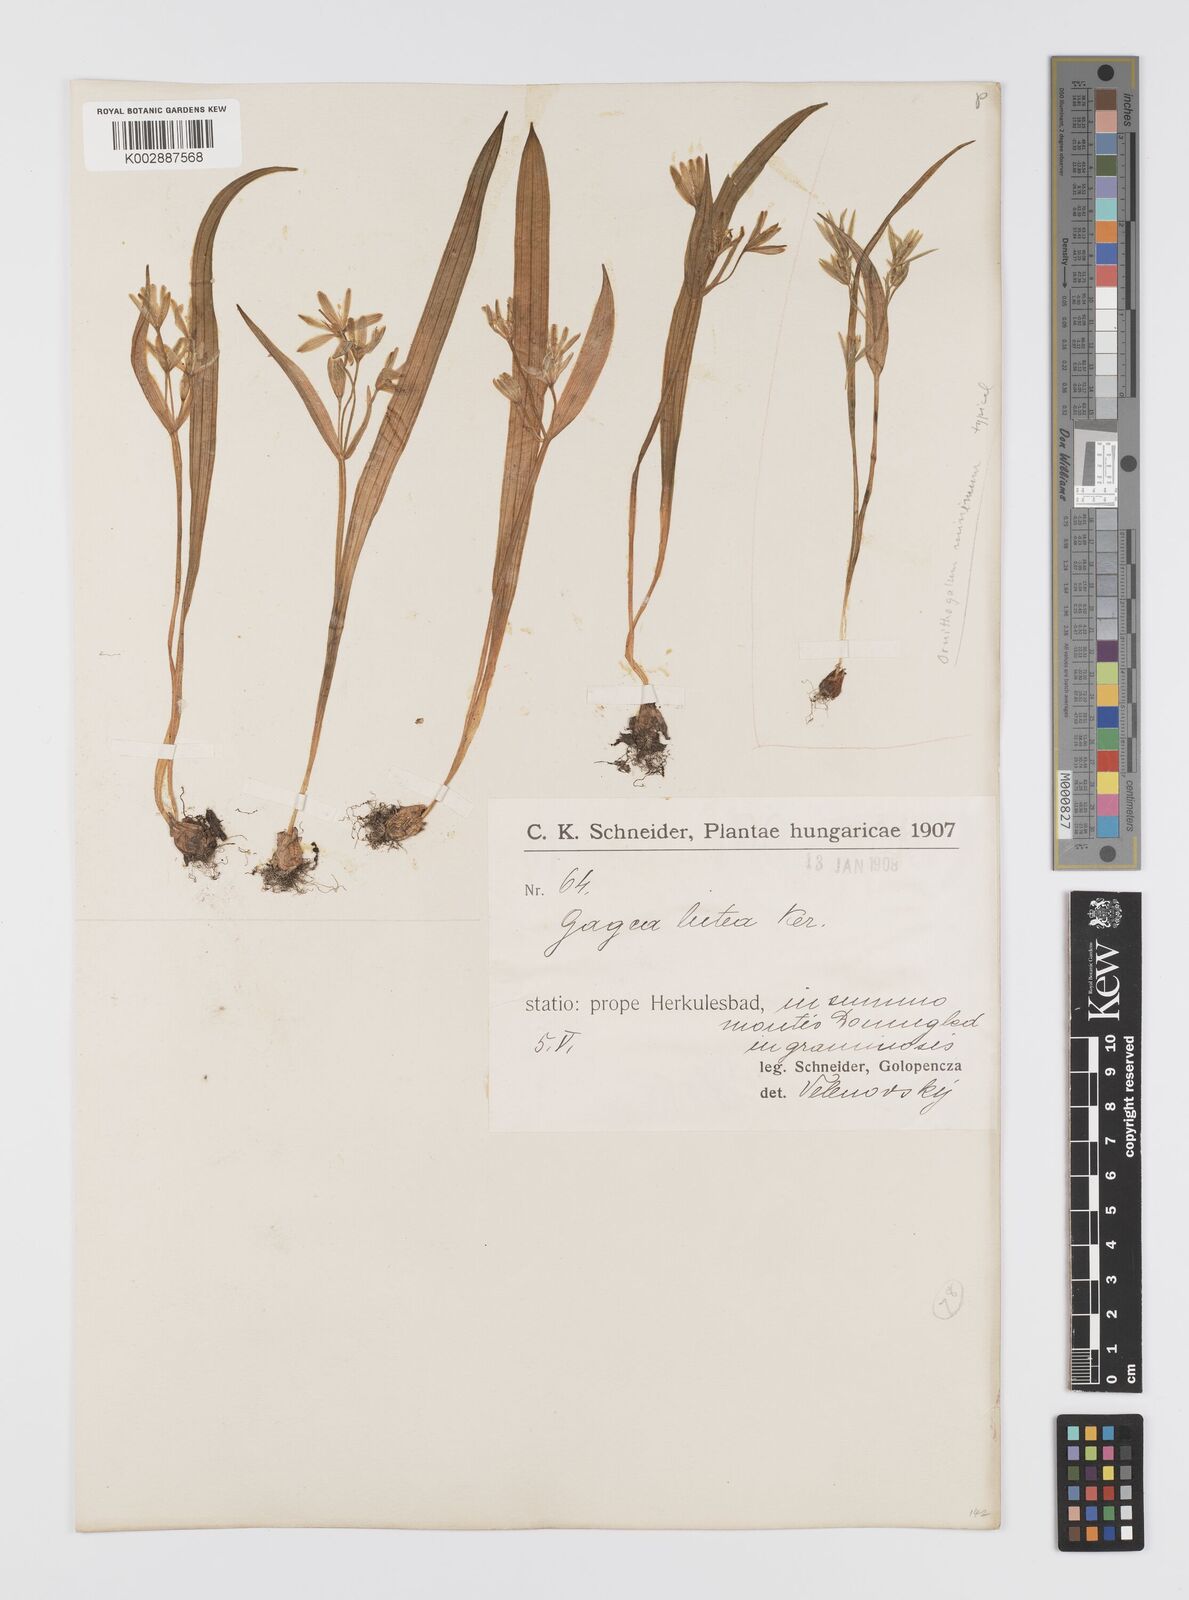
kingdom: Plantae
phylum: Tracheophyta
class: Liliopsida
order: Liliales
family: Liliaceae
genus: Gagea
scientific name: Gagea lutea
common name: Yellow star-of-bethlehem
